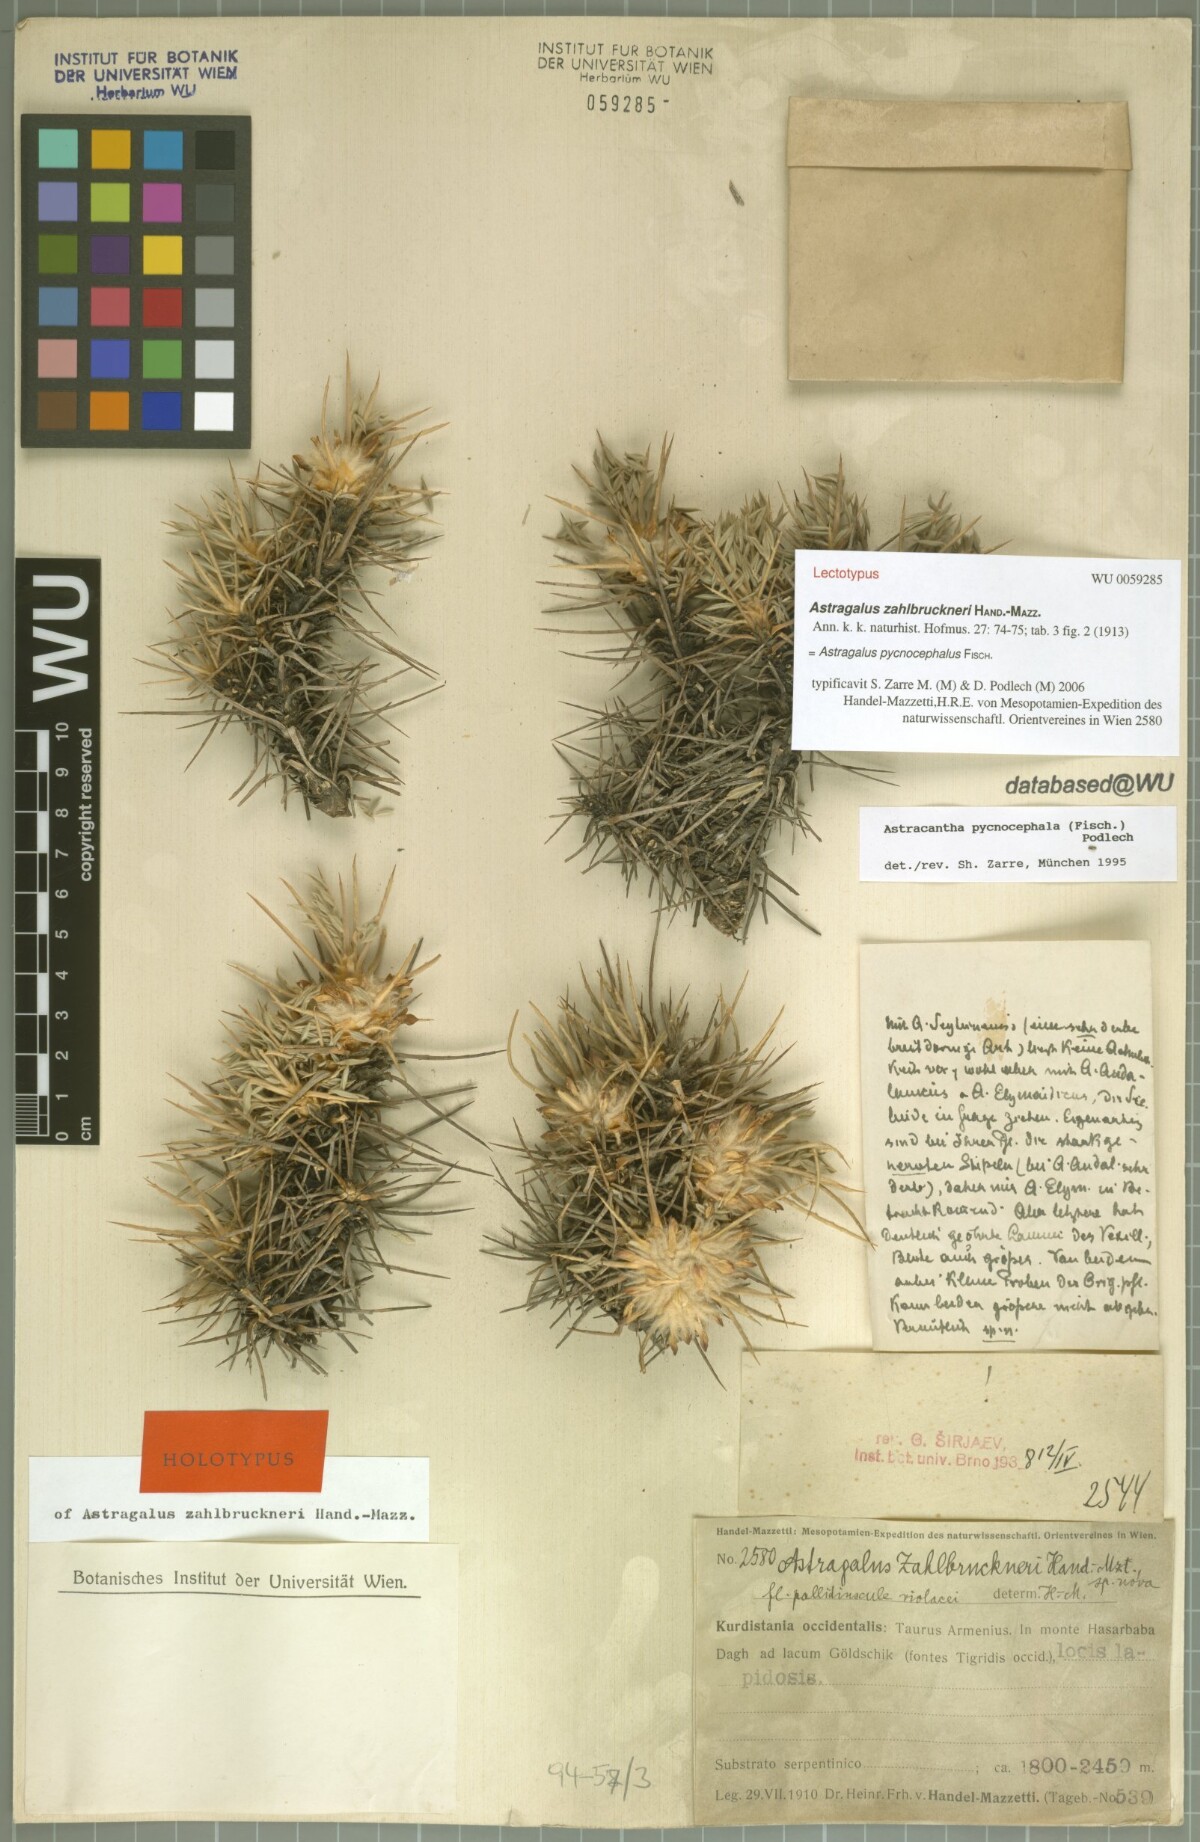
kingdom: Plantae
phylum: Tracheophyta
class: Magnoliopsida
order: Fabales
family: Fabaceae
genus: Astragalus
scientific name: Astragalus pycnocephalus
